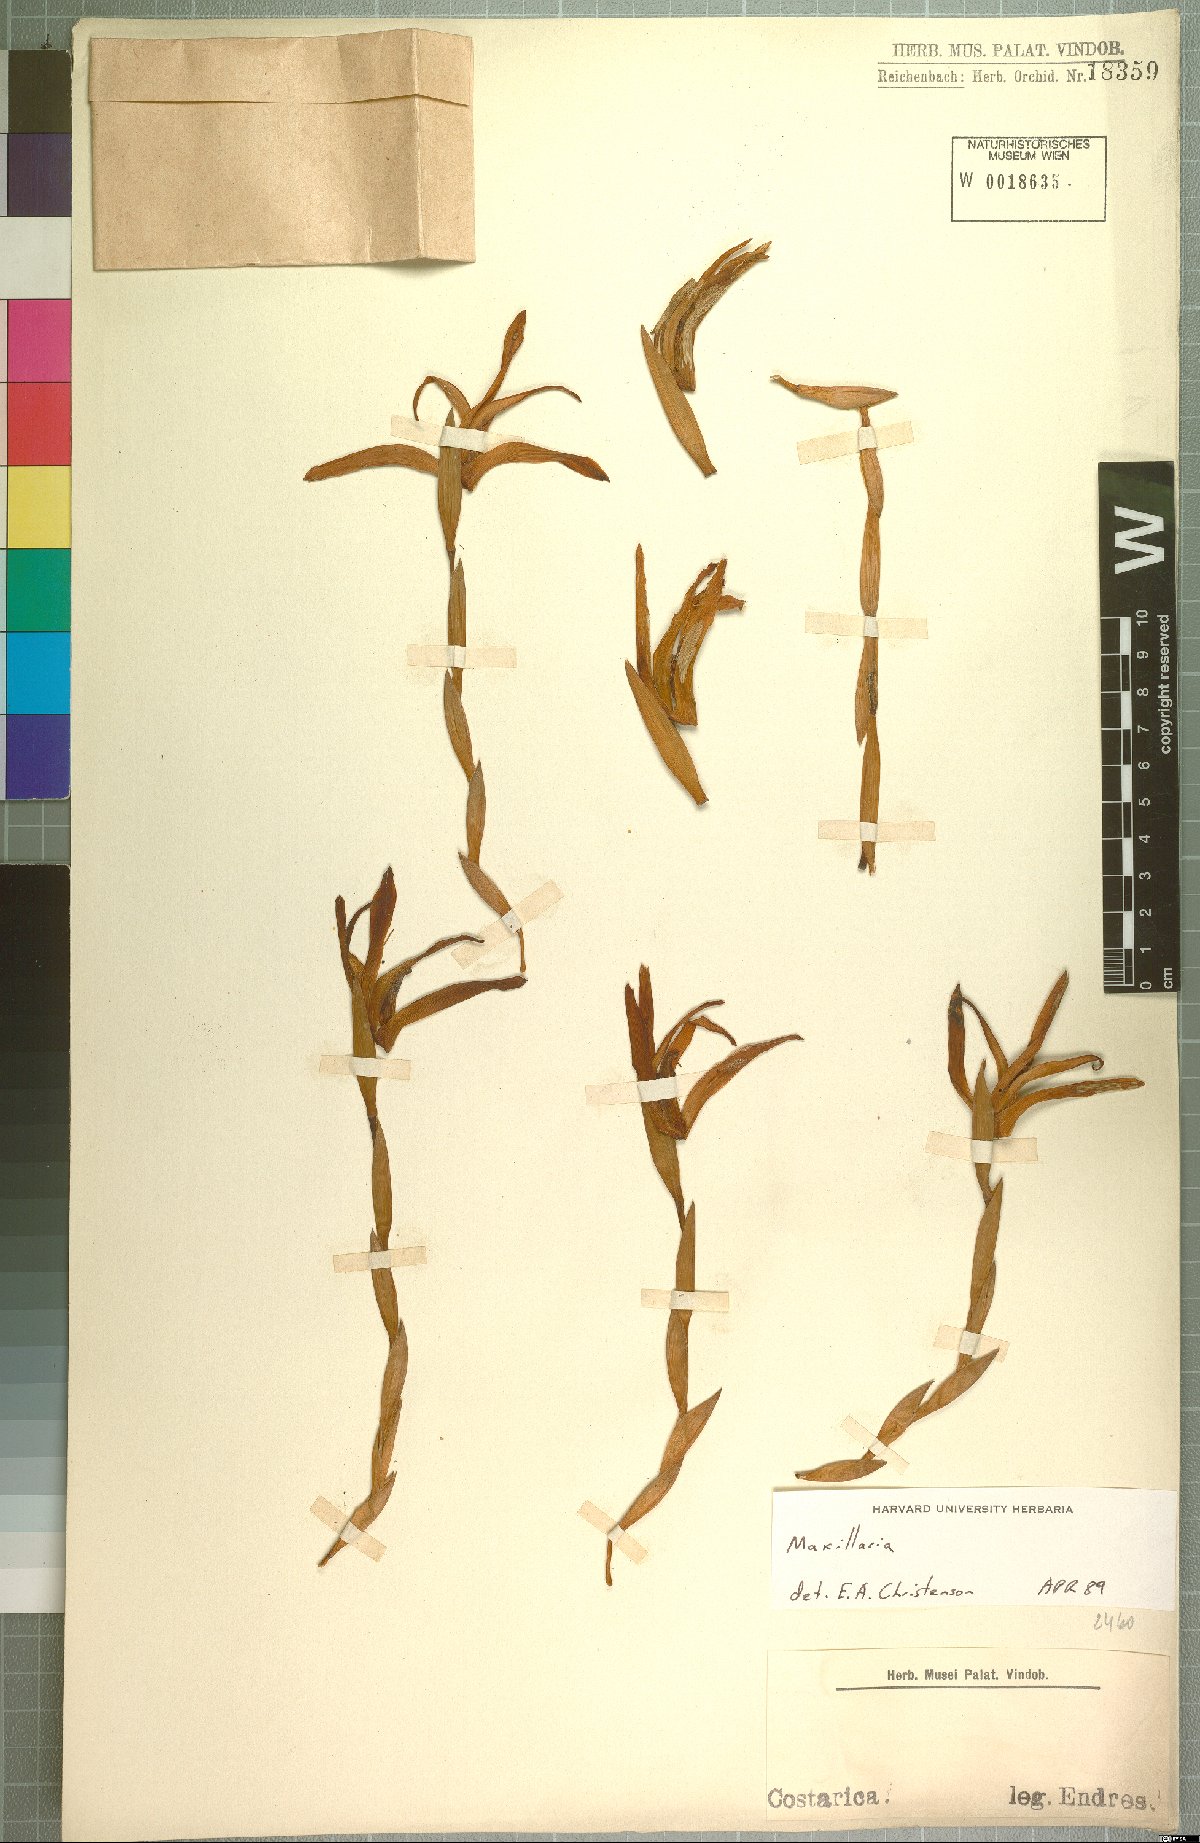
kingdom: Plantae
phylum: Tracheophyta
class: Liliopsida
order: Asparagales
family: Orchidaceae
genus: Maxillaria
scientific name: Maxillaria
